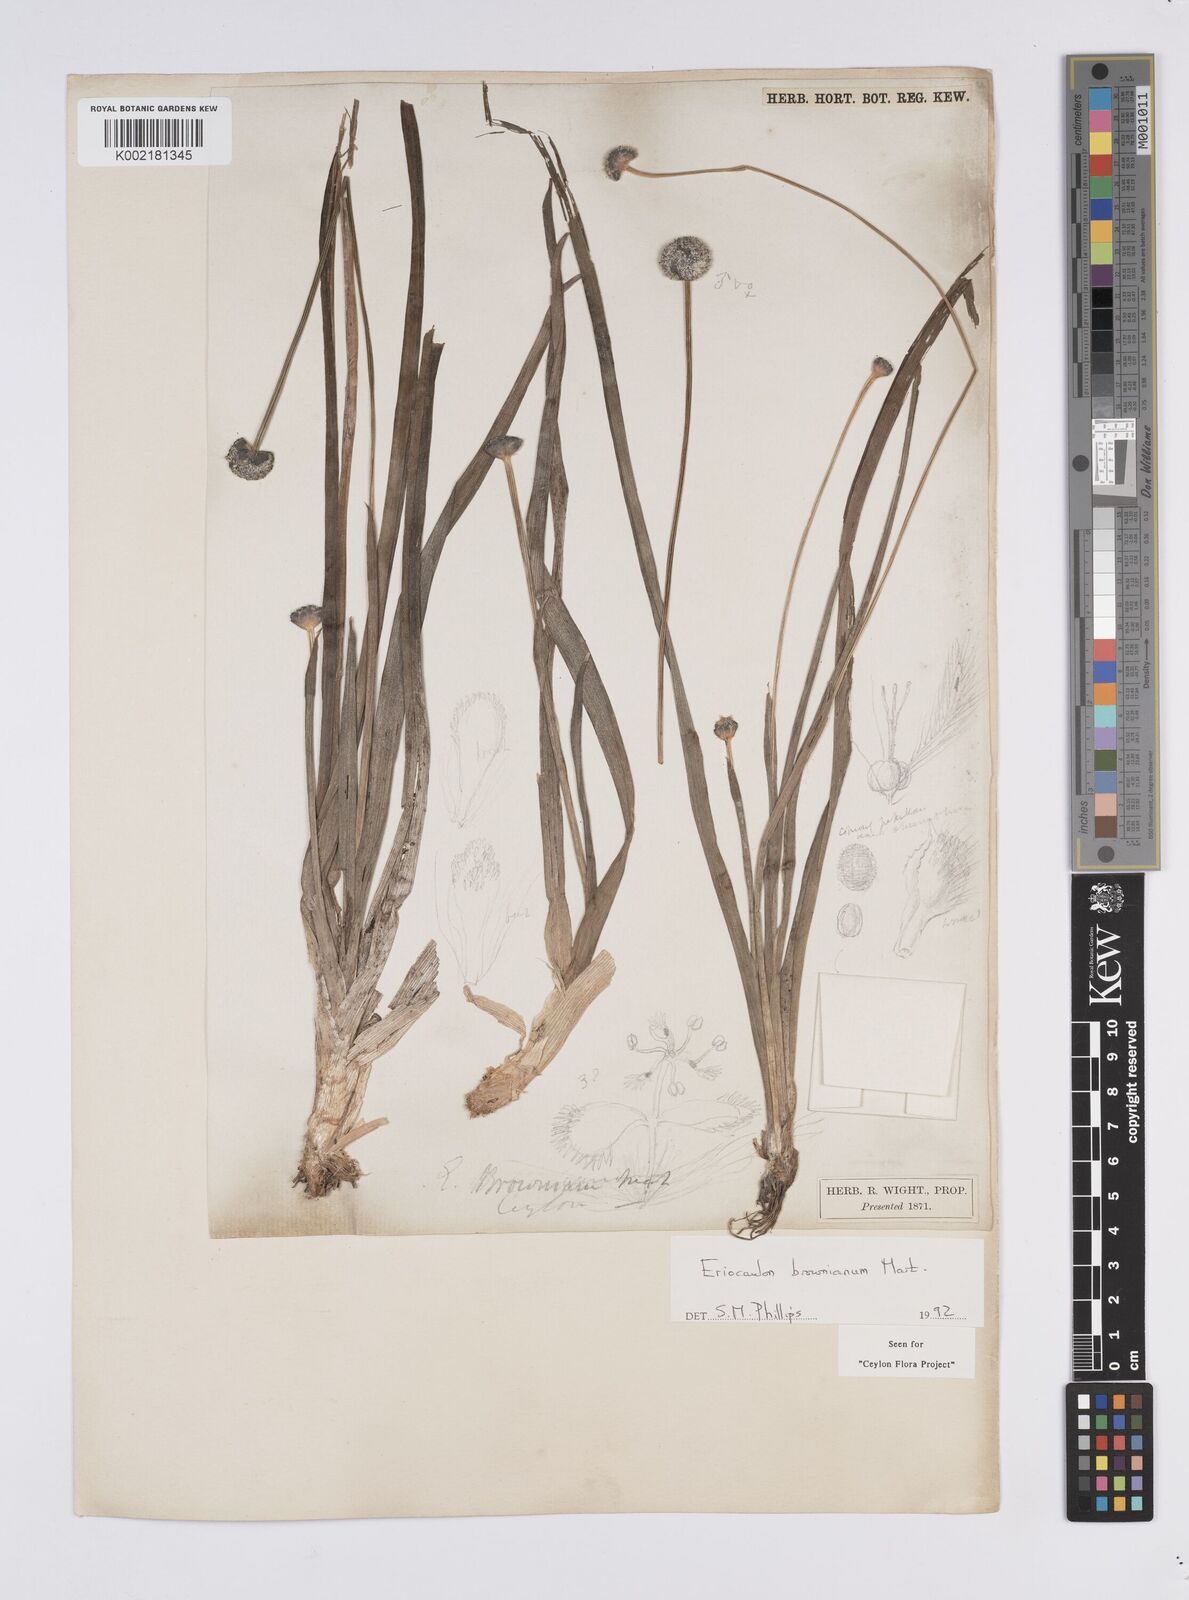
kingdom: Plantae
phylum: Tracheophyta
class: Liliopsida
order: Poales
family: Eriocaulaceae
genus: Eriocaulon
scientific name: Eriocaulon brownianum
